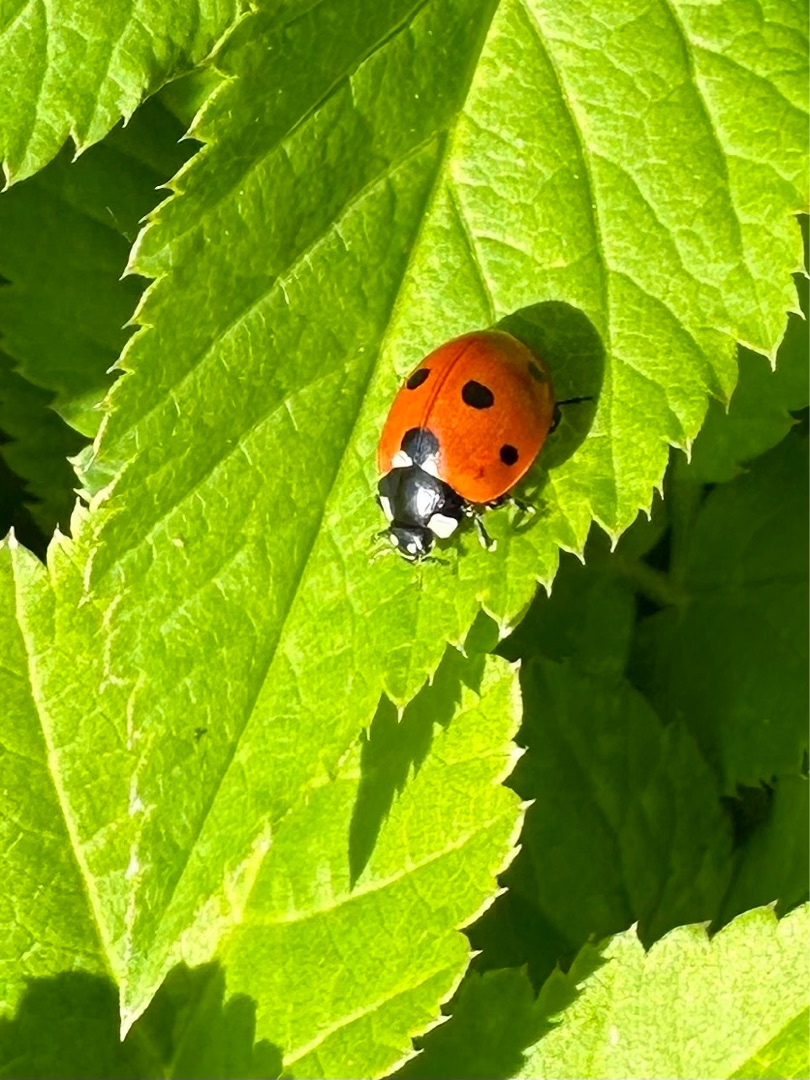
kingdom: Animalia
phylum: Arthropoda
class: Insecta
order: Coleoptera
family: Coccinellidae
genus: Coccinella
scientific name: Coccinella septempunctata
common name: Syvplettet mariehøne
